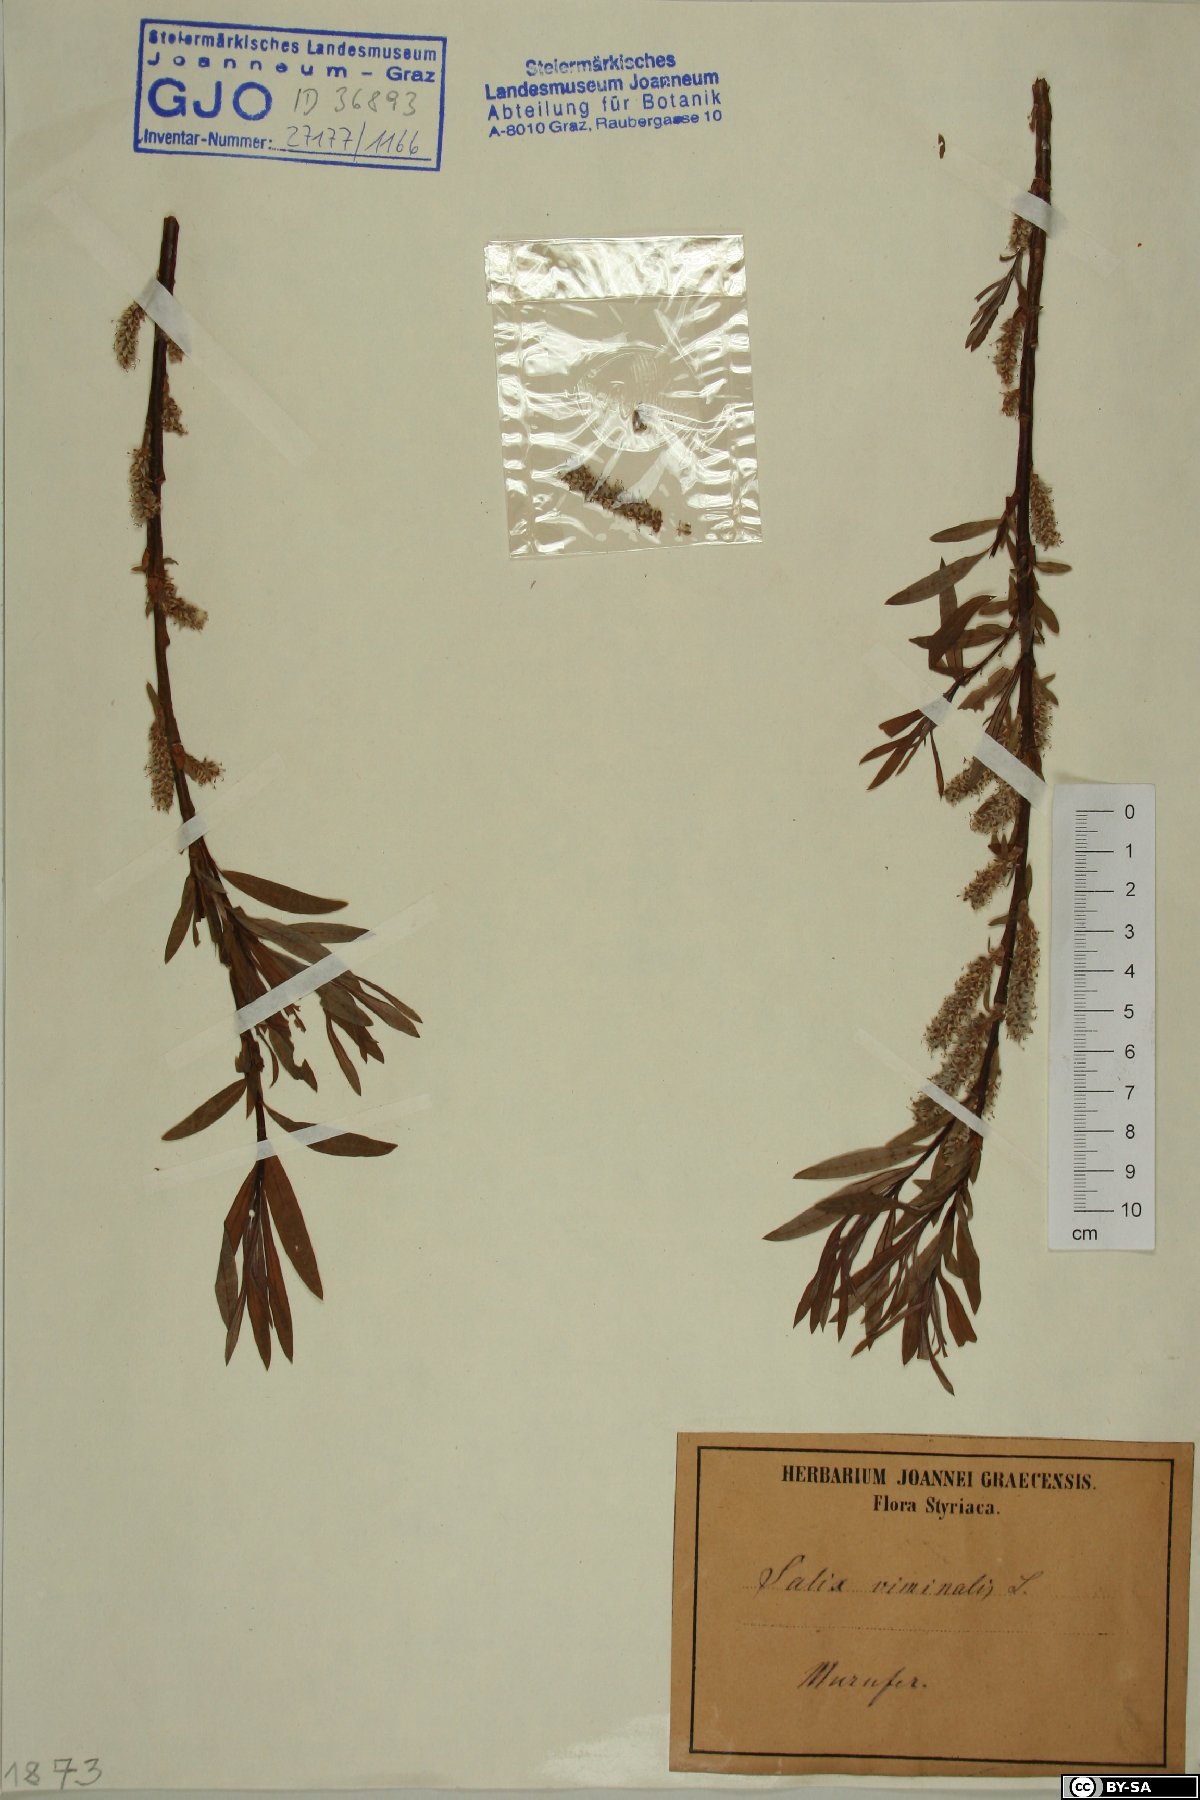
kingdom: Plantae
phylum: Tracheophyta
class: Magnoliopsida
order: Malpighiales
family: Salicaceae
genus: Salix
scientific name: Salix viminalis
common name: Osier
